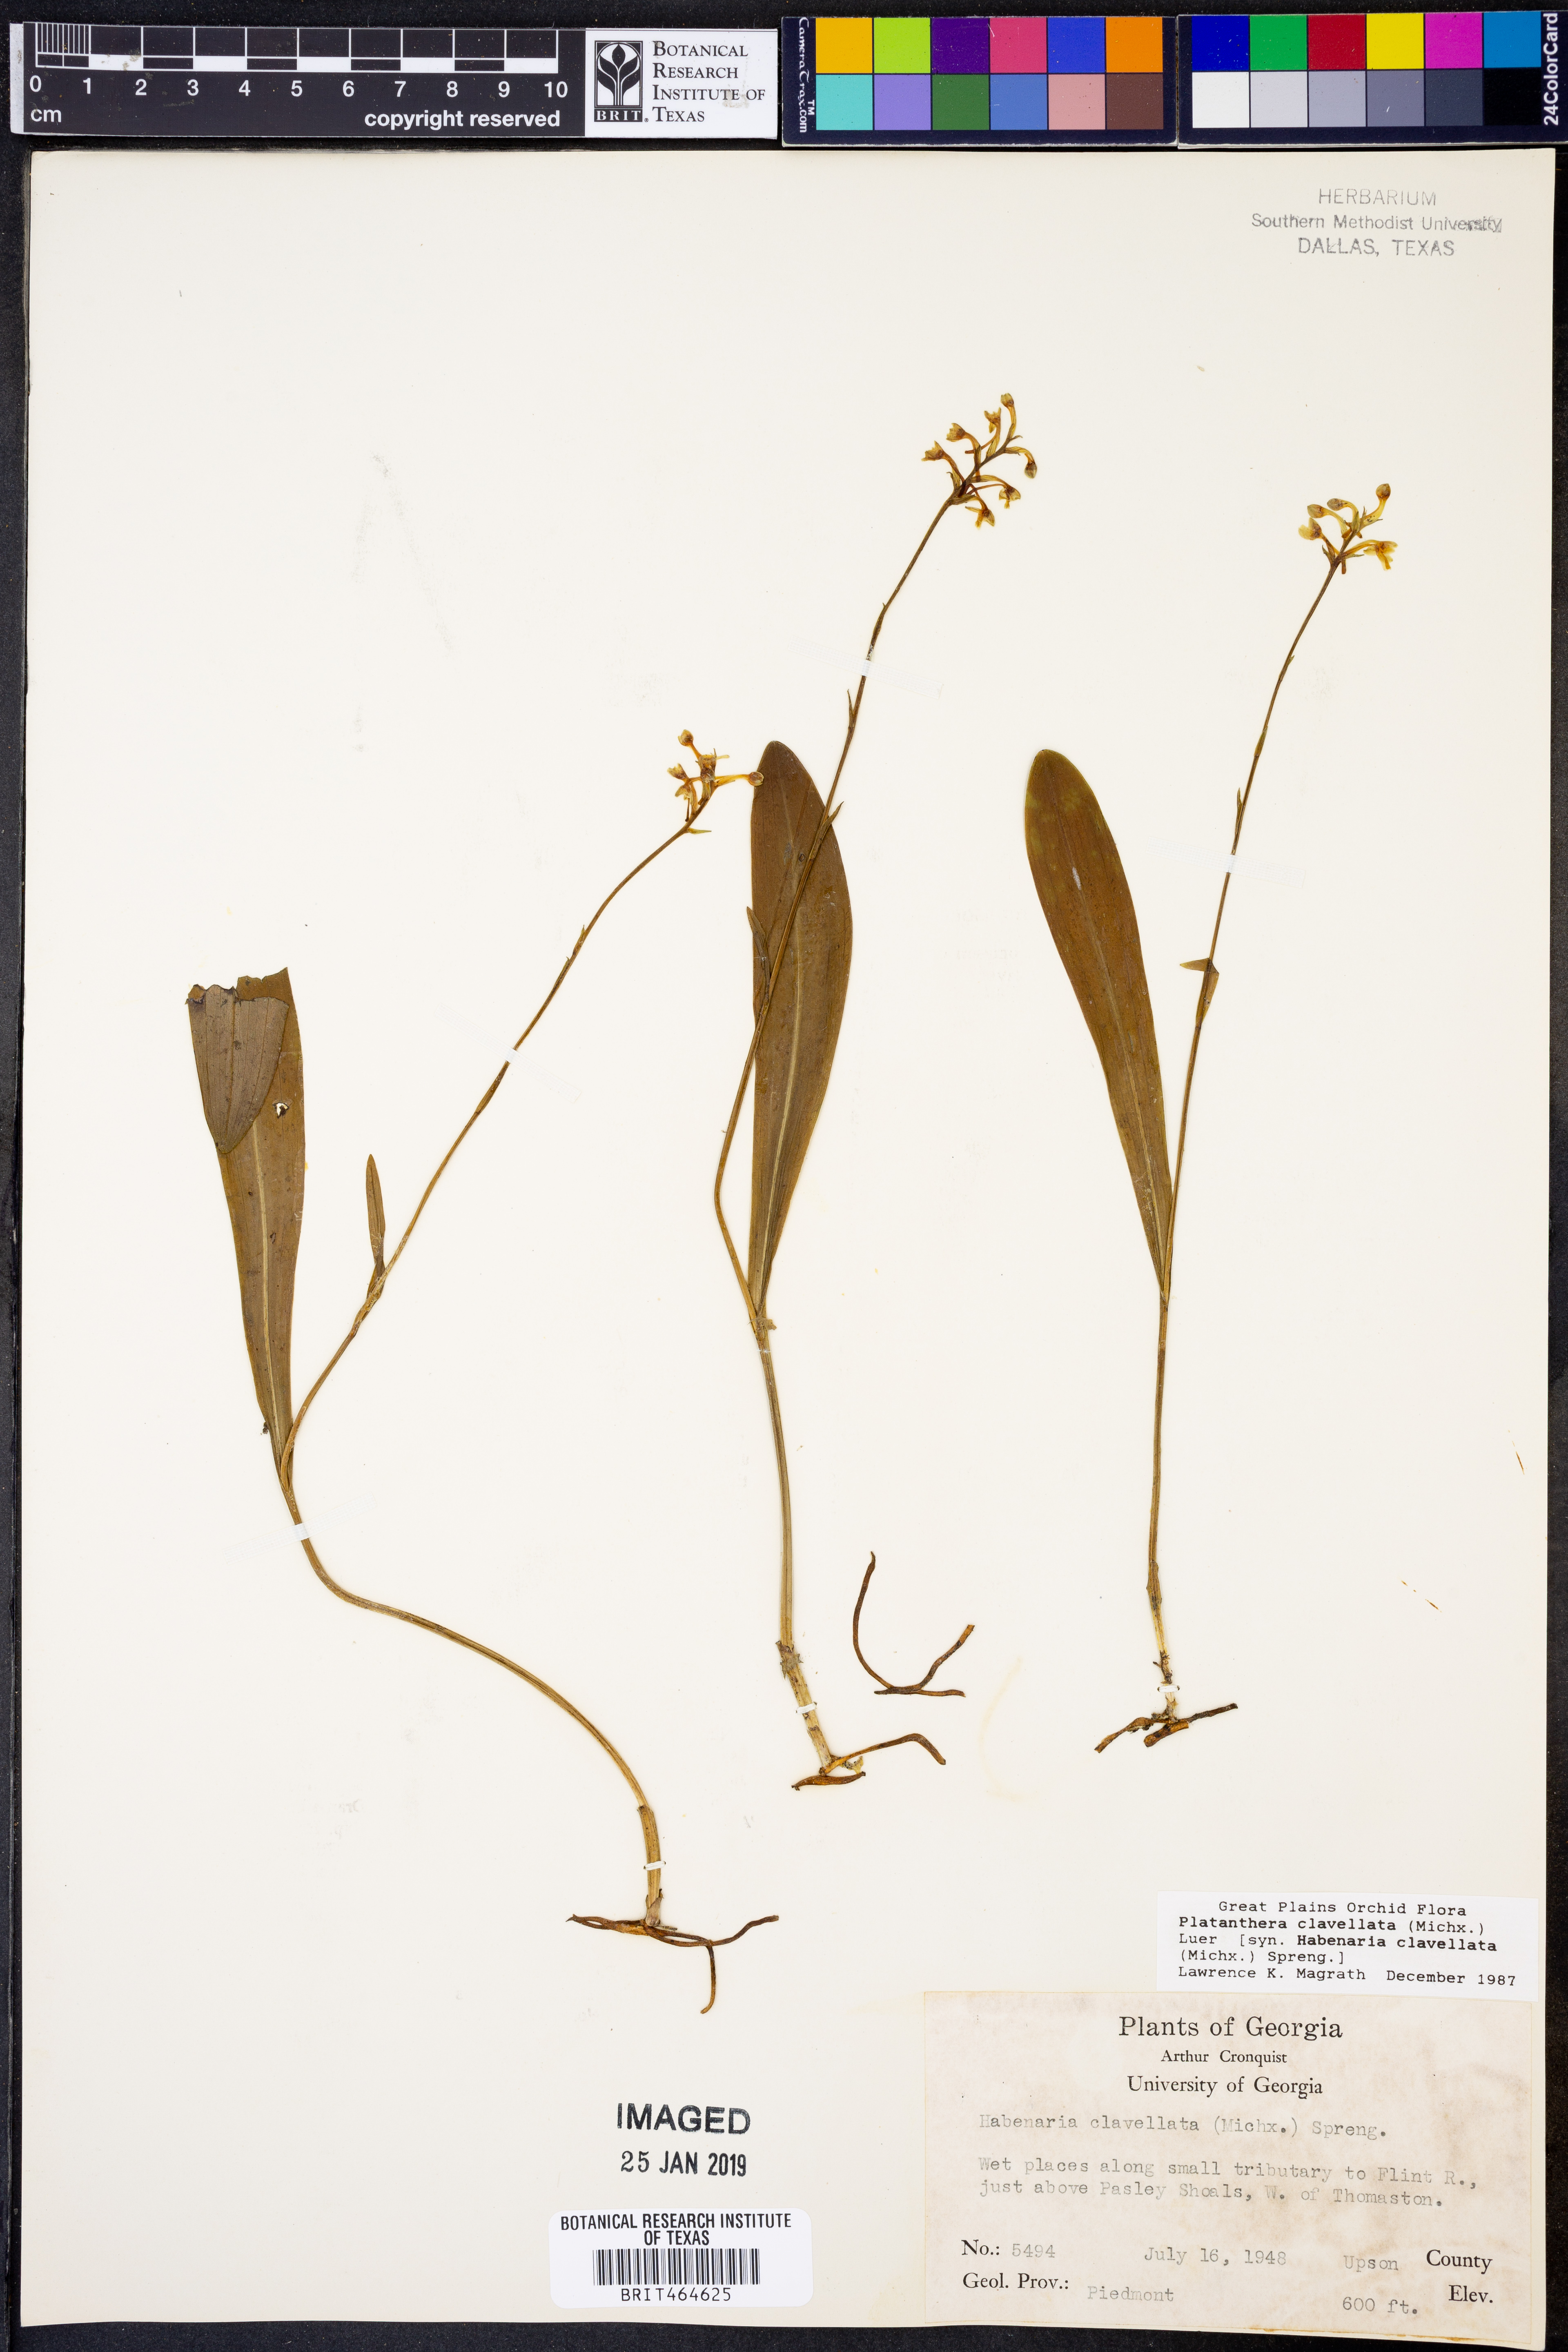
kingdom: Plantae
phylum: Tracheophyta
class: Liliopsida
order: Asparagales
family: Orchidaceae
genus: Platanthera
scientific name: Platanthera clavellata
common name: Club-spur orchid
